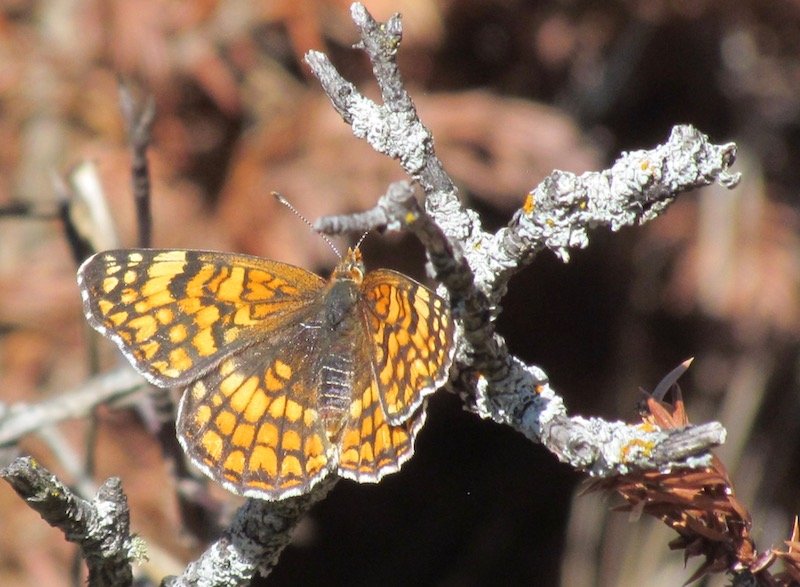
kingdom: Animalia
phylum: Arthropoda
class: Insecta
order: Lepidoptera
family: Nymphalidae
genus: Chlosyne
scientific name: Chlosyne acastus
